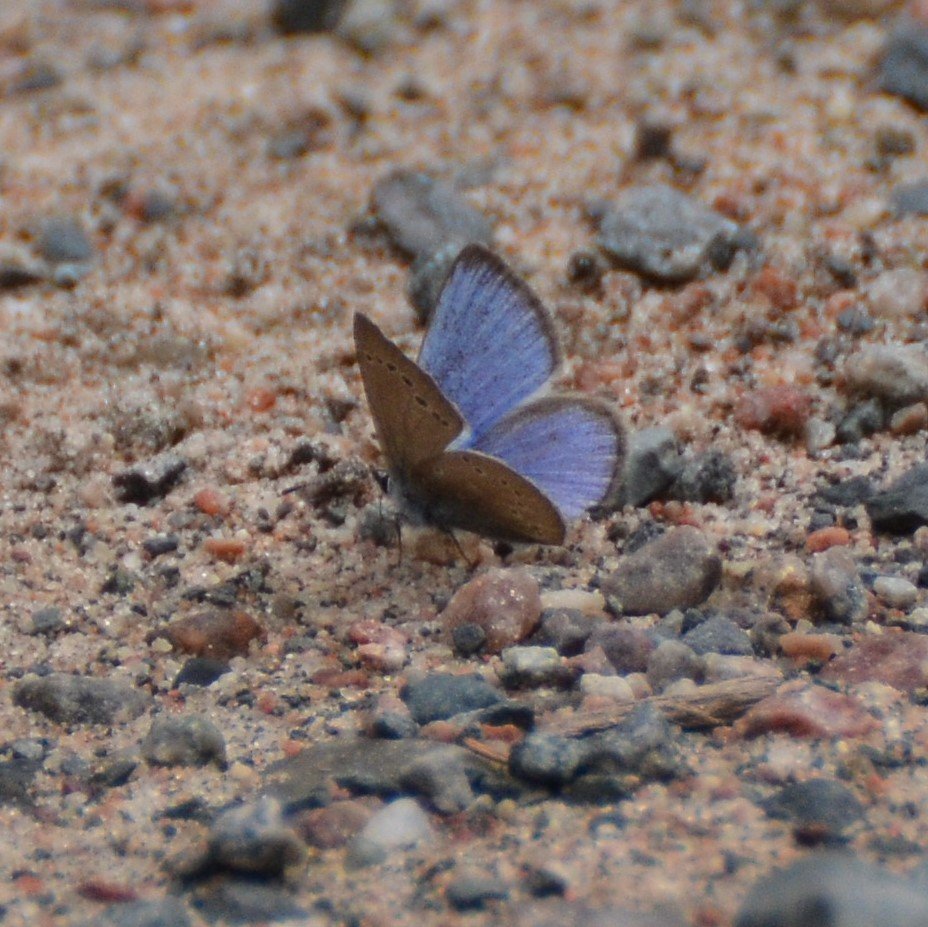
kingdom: Animalia
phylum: Arthropoda
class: Insecta
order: Lepidoptera
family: Lycaenidae
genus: Glaucopsyche
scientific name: Glaucopsyche lygdamus
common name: Silvery Blue
